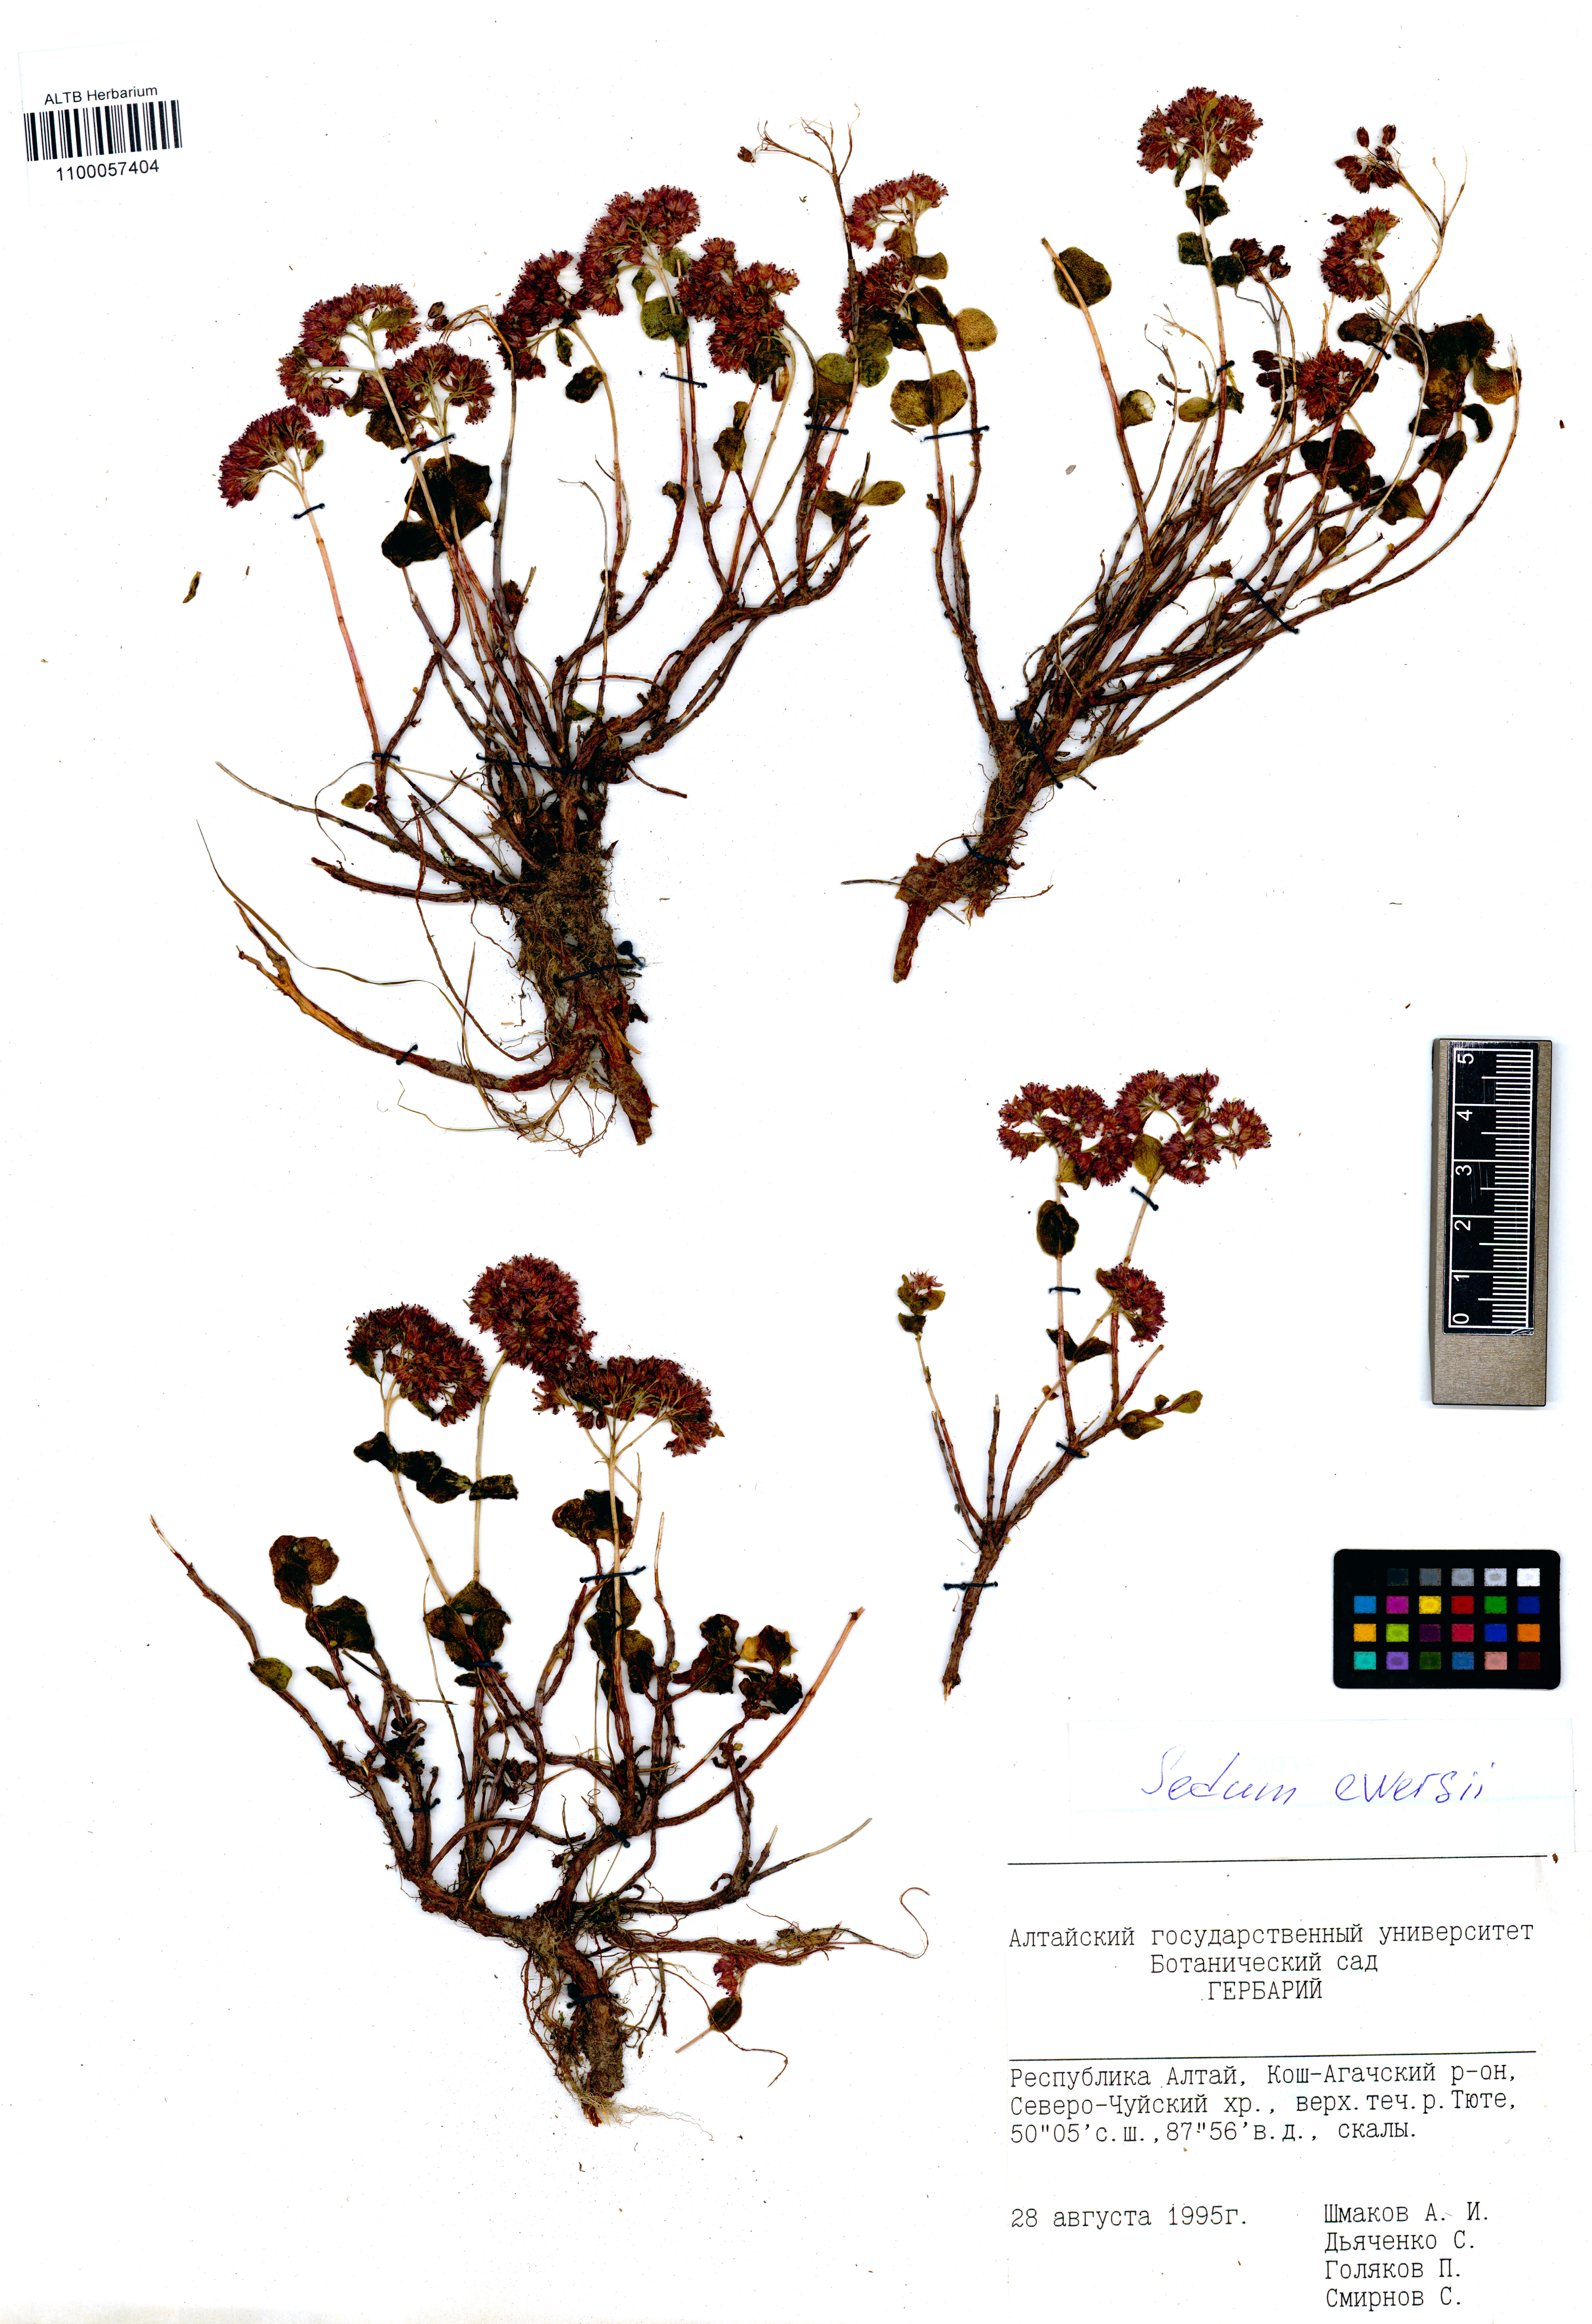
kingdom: Plantae
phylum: Tracheophyta
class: Magnoliopsida
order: Saxifragales
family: Crassulaceae
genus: Hylotelephium
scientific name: Hylotelephium ewersii
